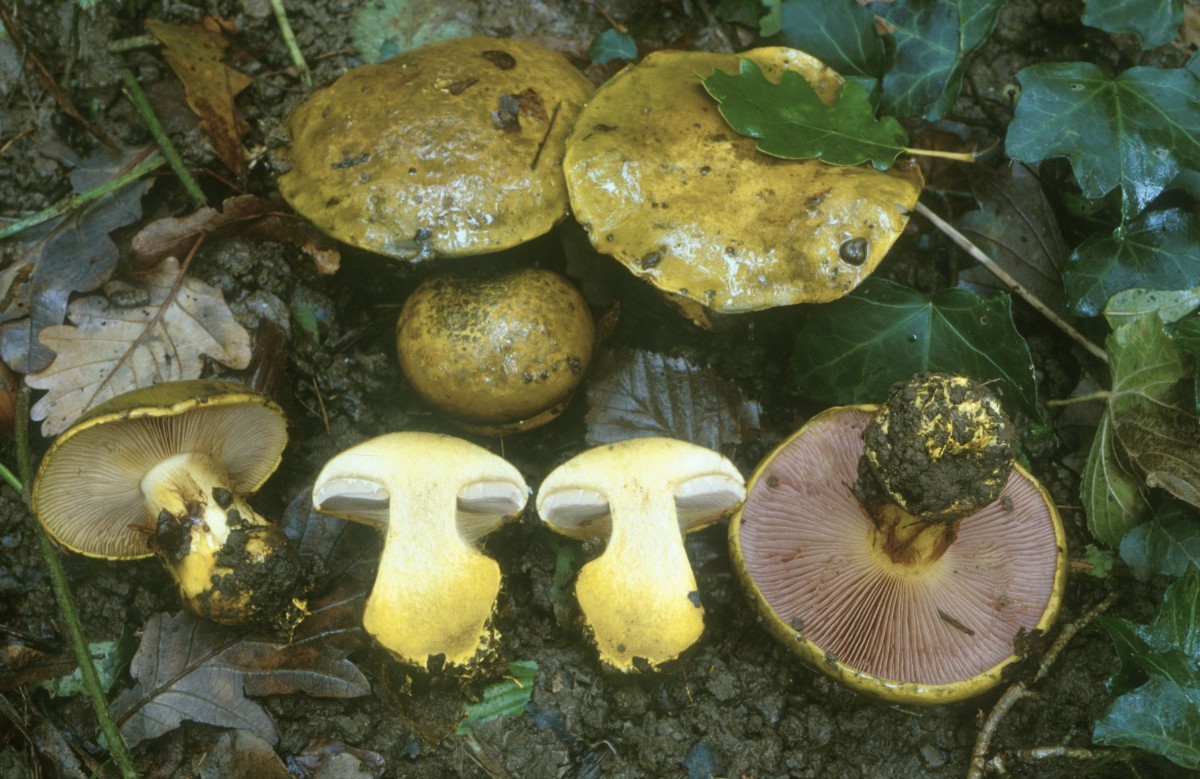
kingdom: Fungi
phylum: Basidiomycota
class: Agaricomycetes
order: Agaricales
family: Cortinariaceae
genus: Calonarius
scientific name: Calonarius ionochlorus
